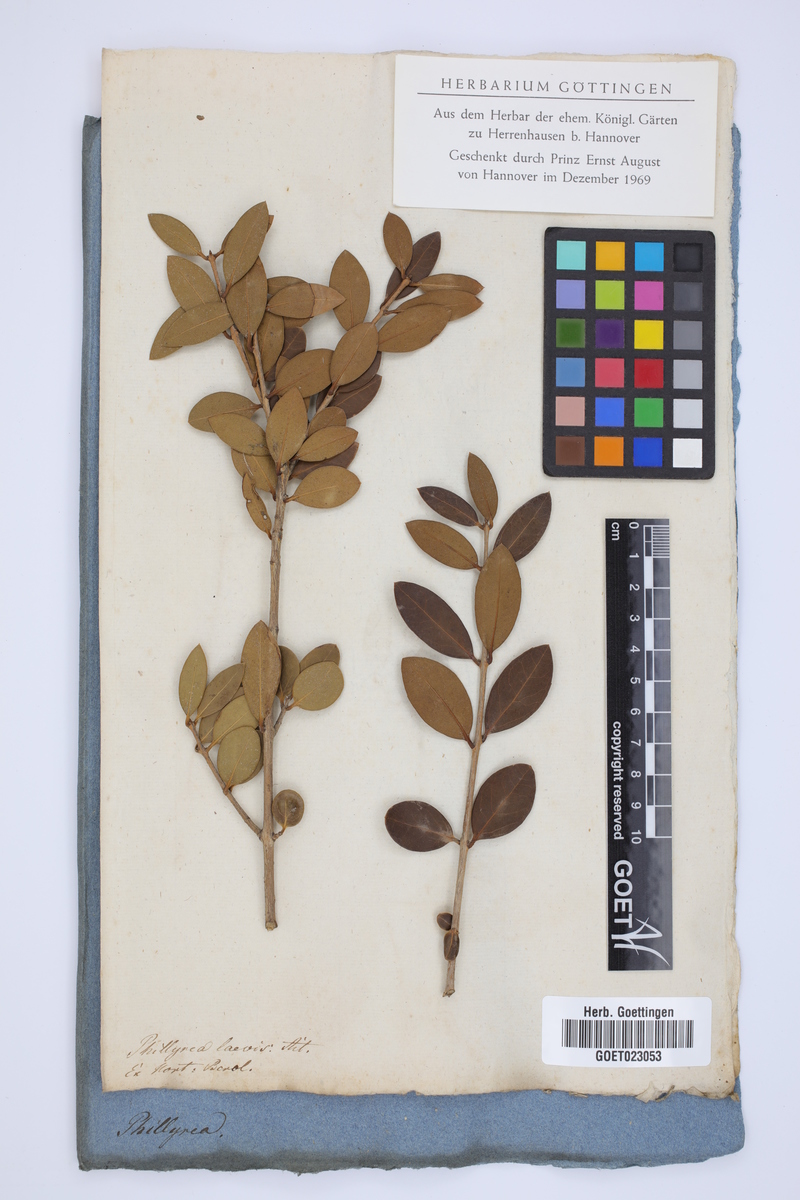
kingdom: Plantae
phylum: Tracheophyta
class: Magnoliopsida
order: Lamiales
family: Oleaceae
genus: Phillyrea
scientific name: Phillyrea latifolia
